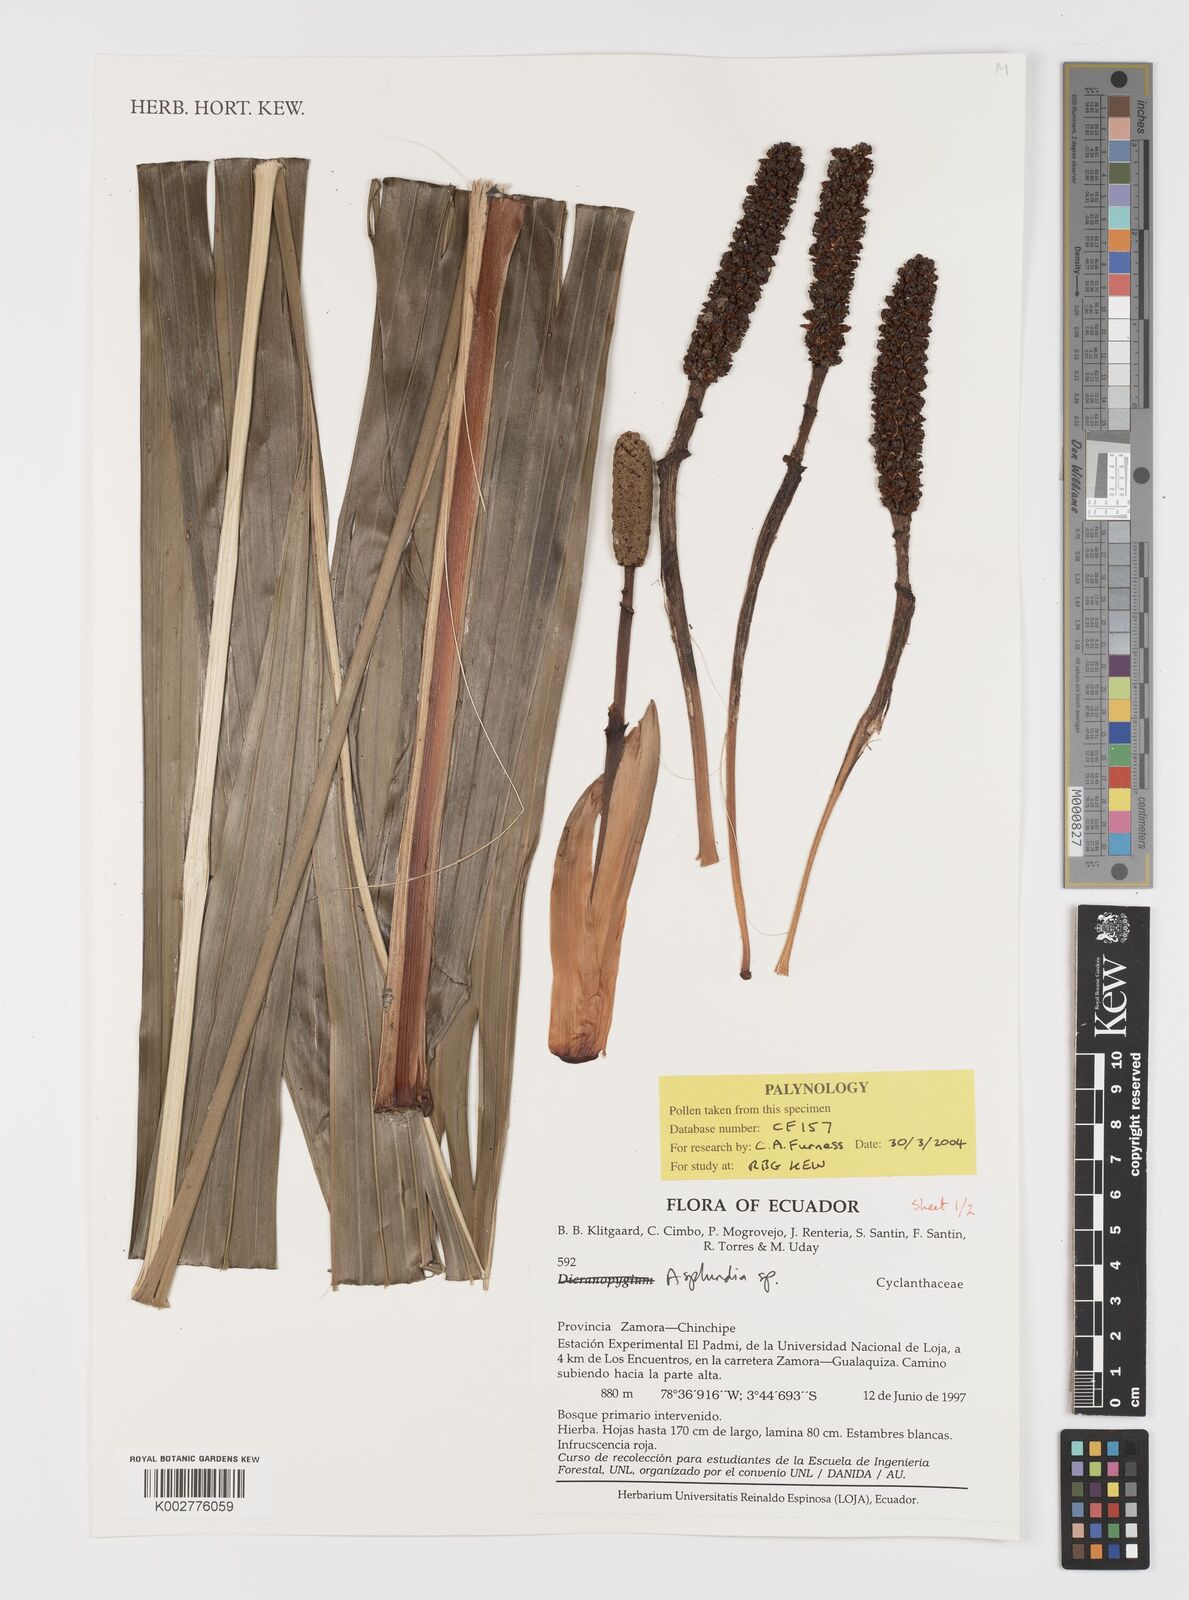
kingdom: Plantae
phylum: Tracheophyta
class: Liliopsida
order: Pandanales
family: Cyclanthaceae
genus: Asplundia
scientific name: Asplundia
